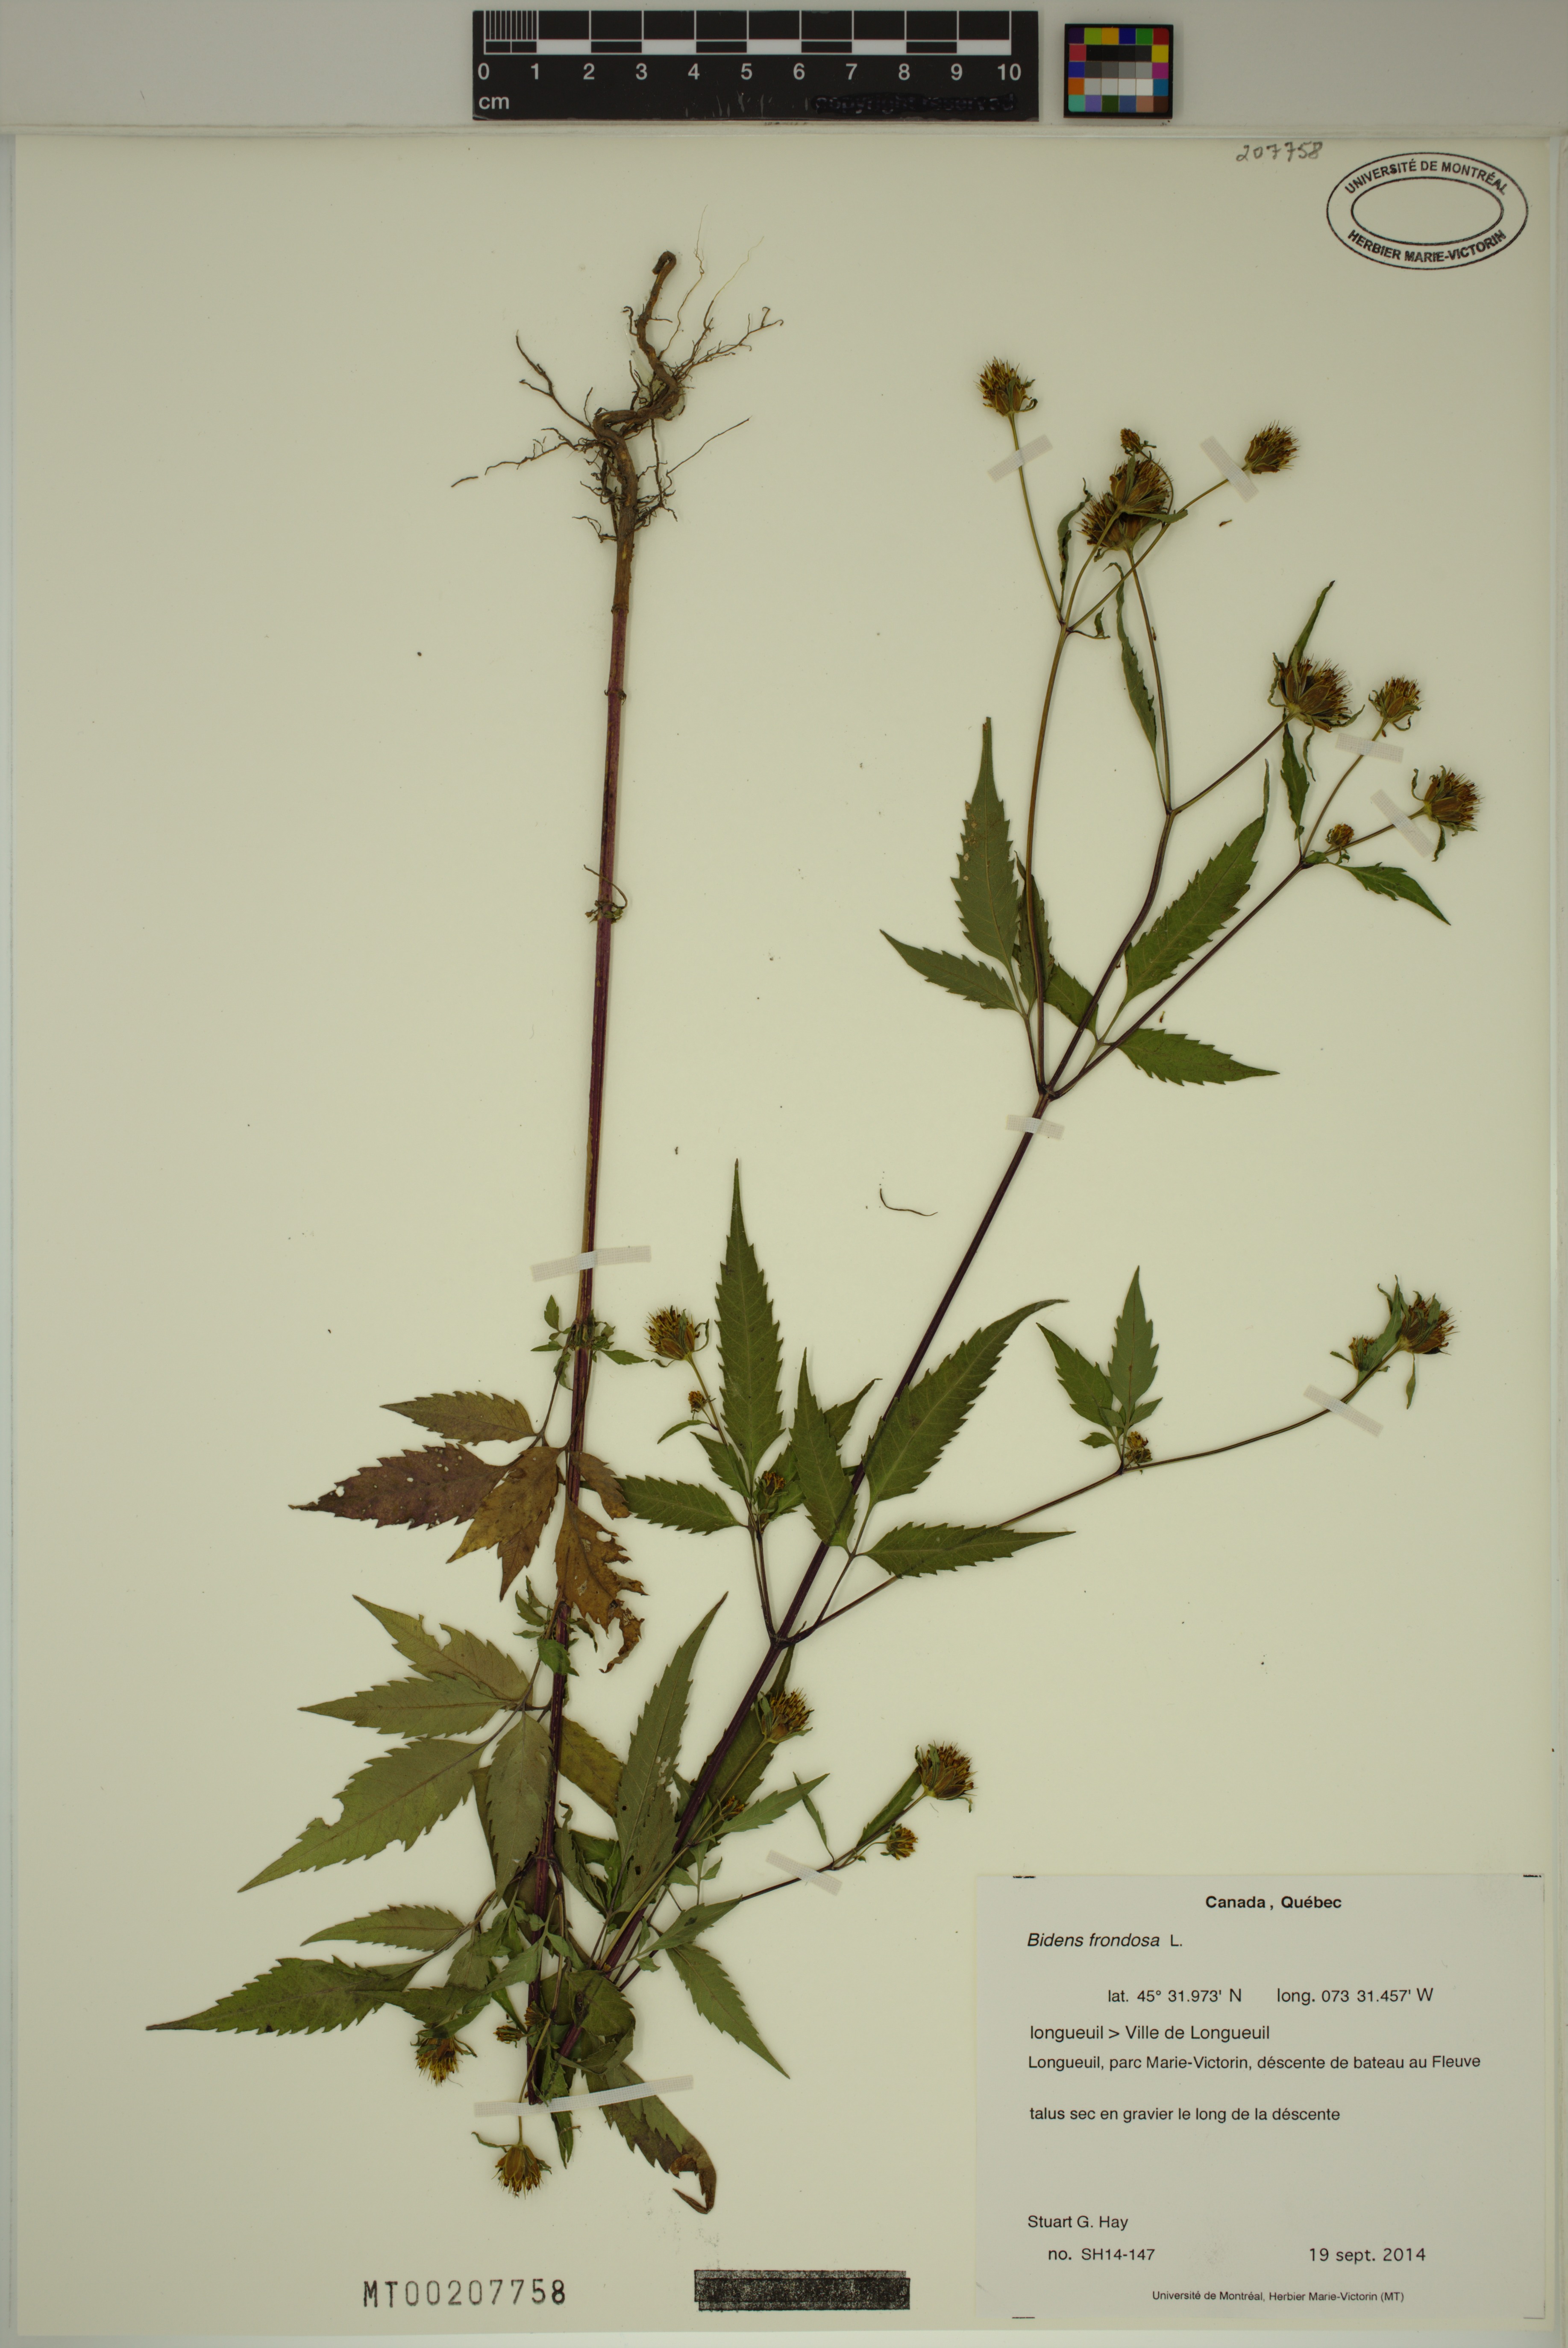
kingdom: Plantae
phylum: Tracheophyta
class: Magnoliopsida
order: Asterales
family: Asteraceae
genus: Bidens
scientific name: Bidens frondosa
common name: Beggarticks
